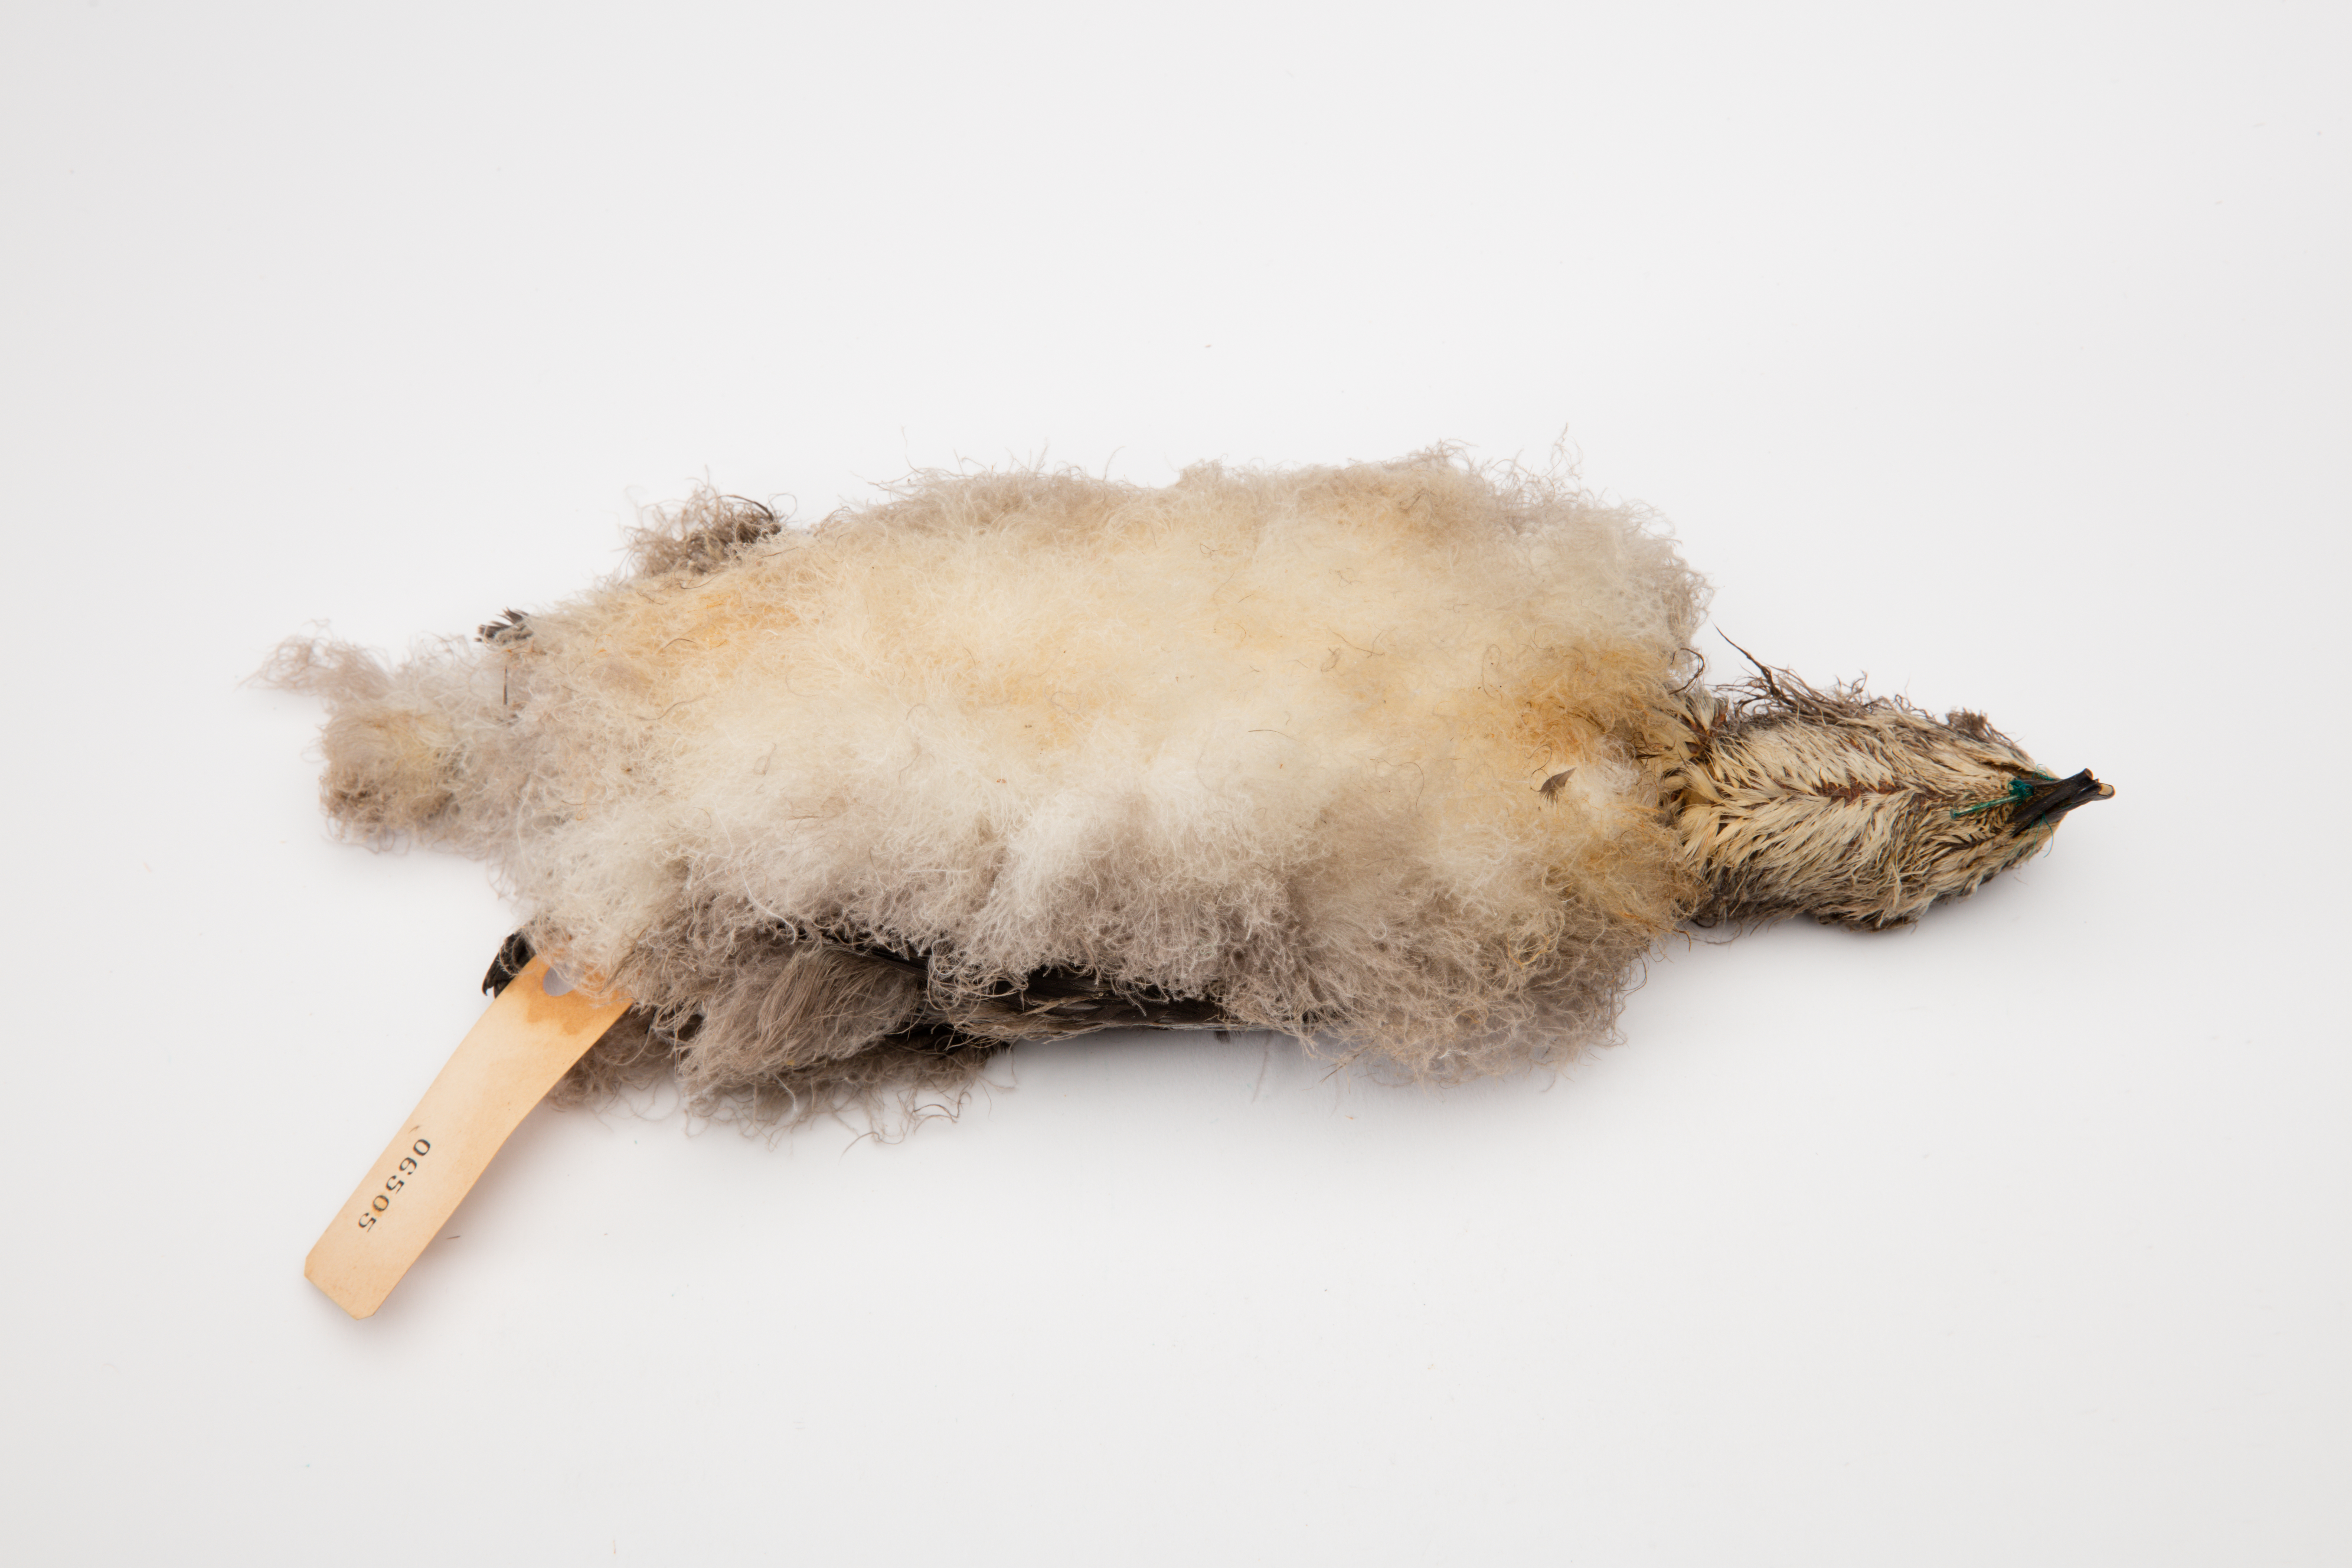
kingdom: Animalia
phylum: Chordata
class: Aves
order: Procellariiformes
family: Procellariidae
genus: Pterodroma
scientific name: Pterodroma nigripennis
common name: Black-winged petrel
